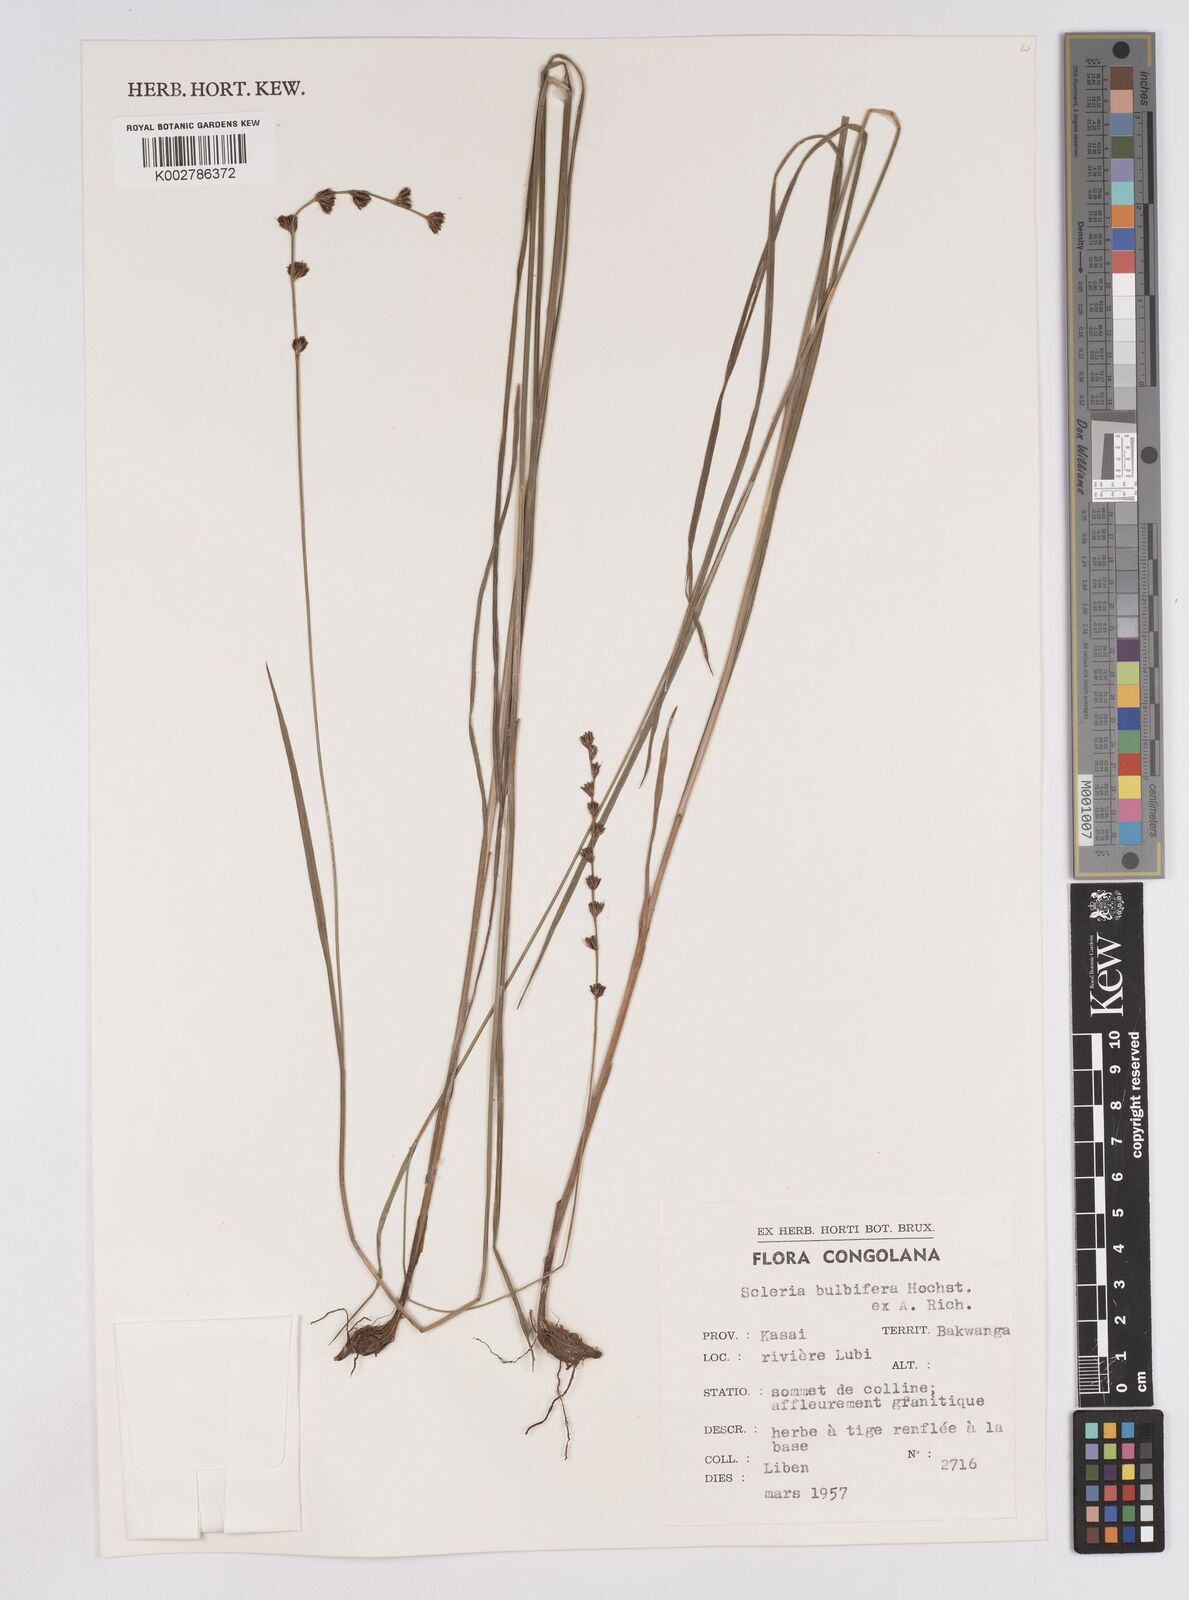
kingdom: Plantae
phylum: Tracheophyta
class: Liliopsida
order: Poales
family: Cyperaceae
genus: Scleria
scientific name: Scleria bulbifera
